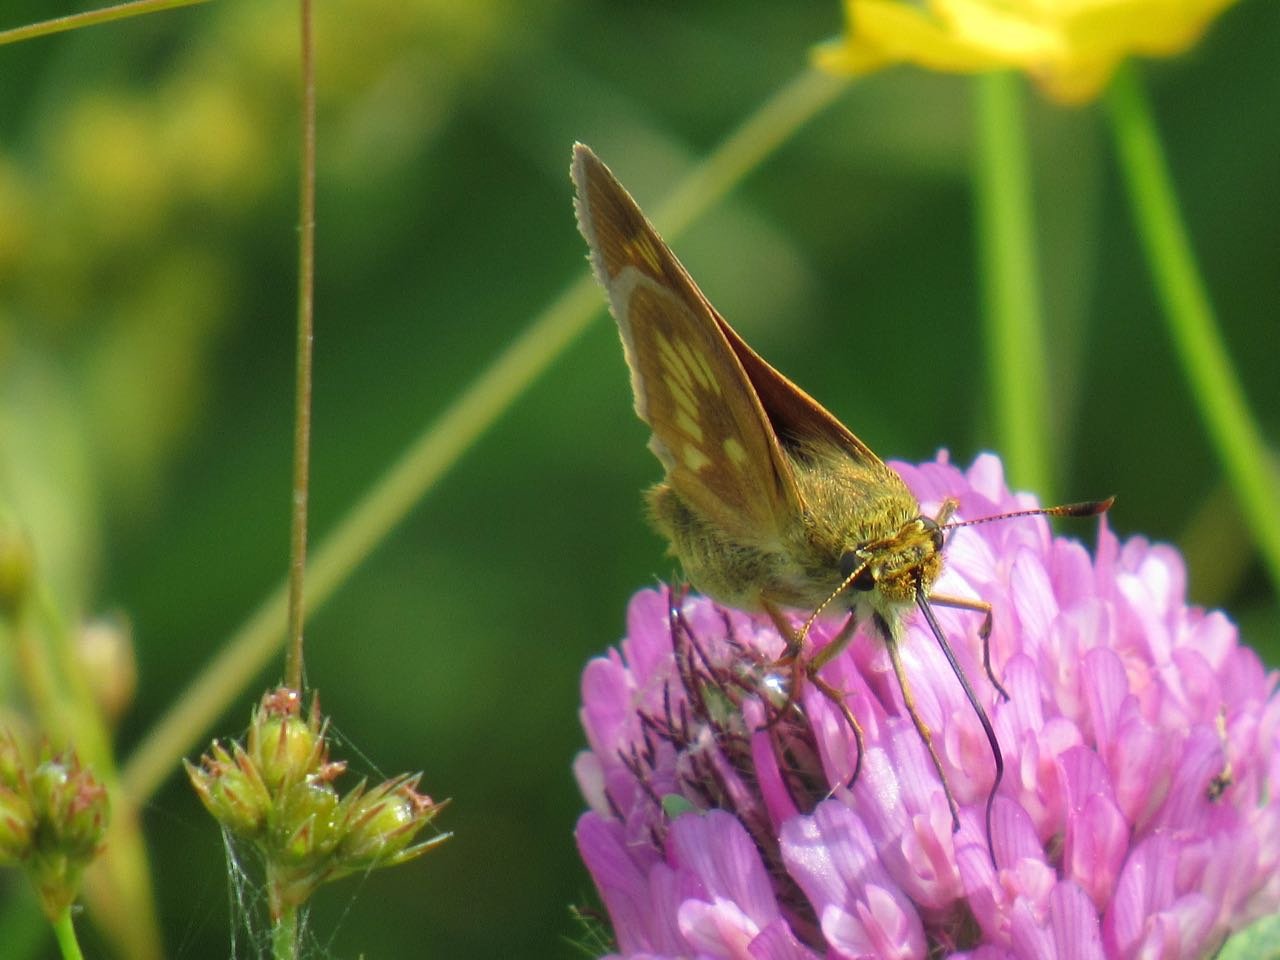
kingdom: Animalia
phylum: Arthropoda
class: Insecta
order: Lepidoptera
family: Hesperiidae
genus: Polites
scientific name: Polites
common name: Long Dash Skipper
